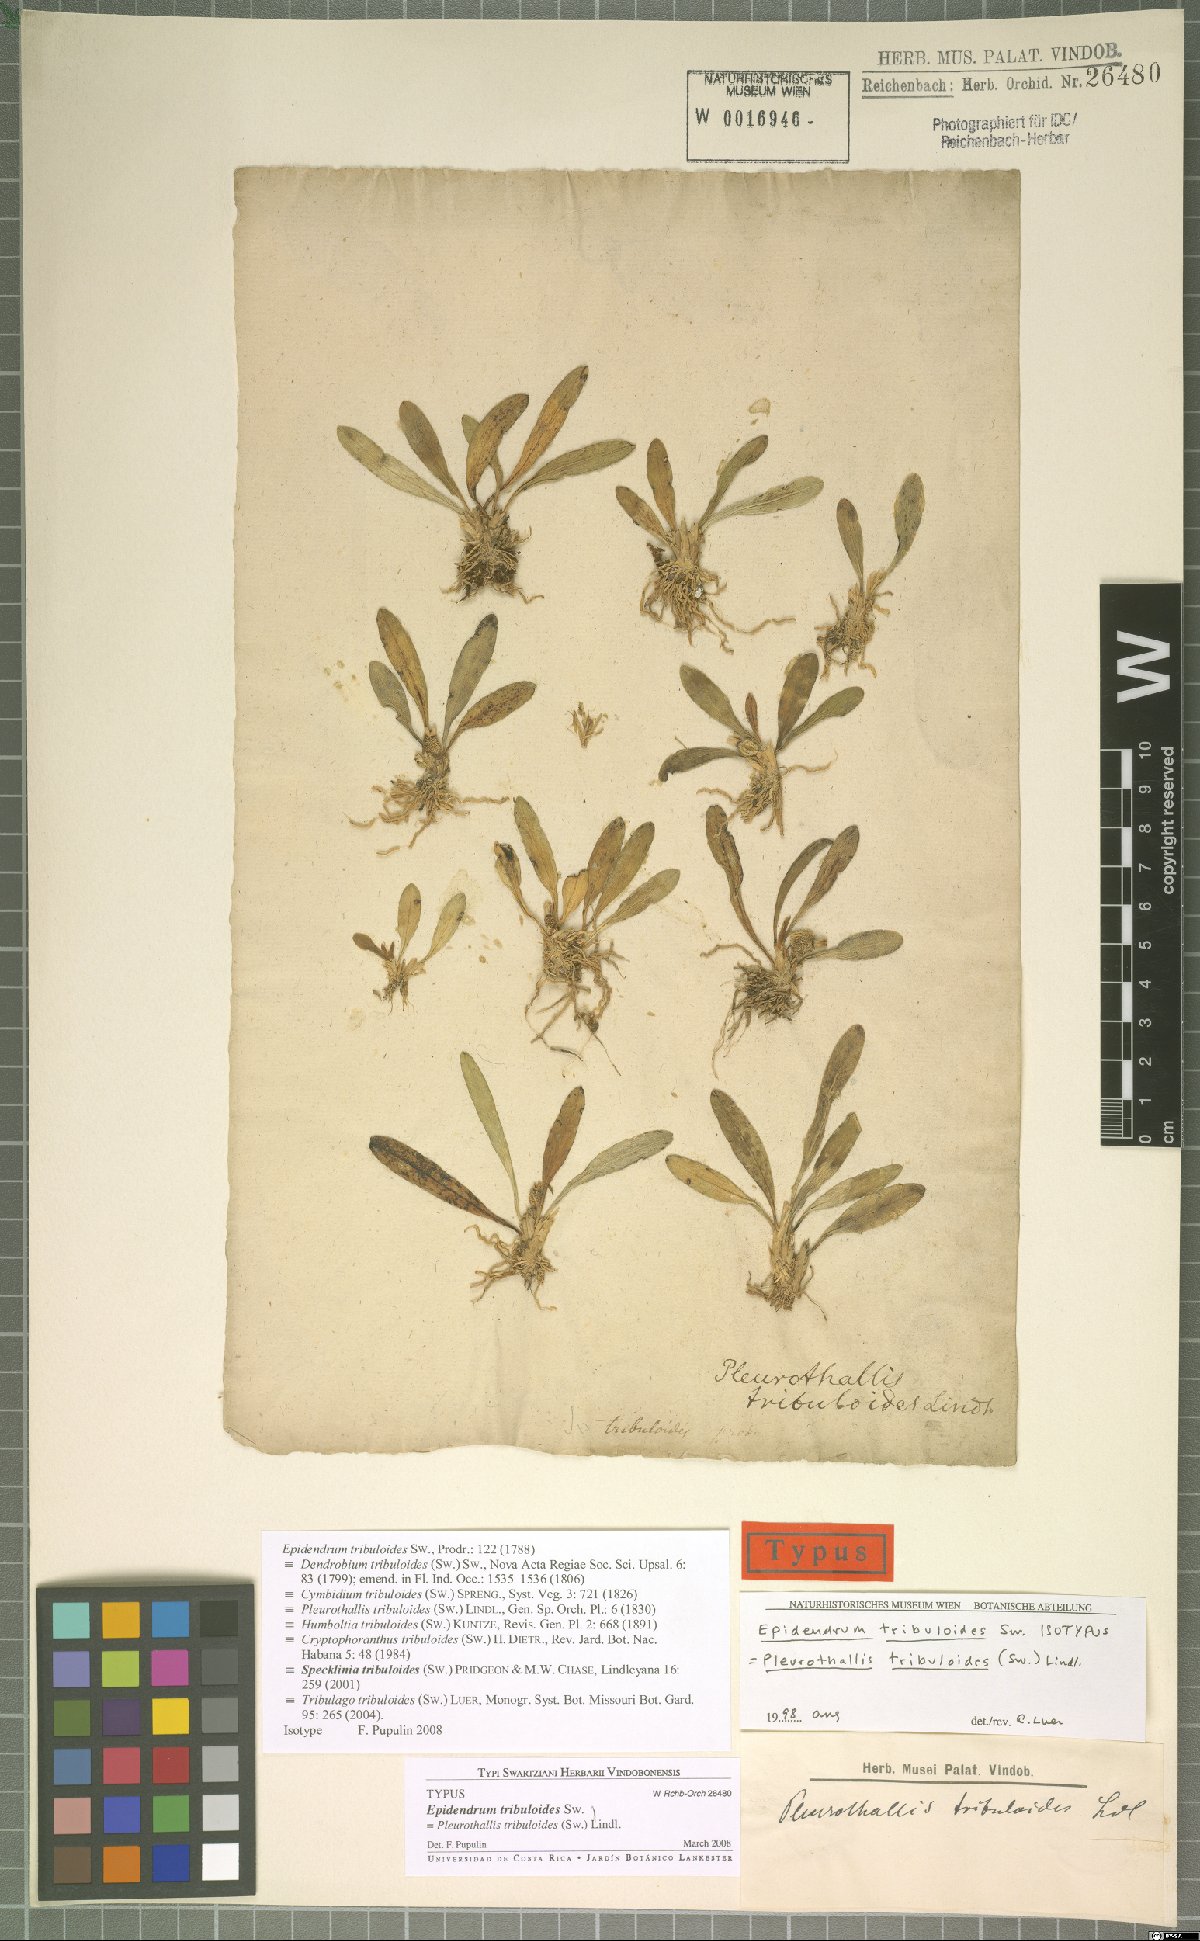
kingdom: Plantae
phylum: Tracheophyta
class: Liliopsida
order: Asparagales
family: Orchidaceae
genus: Specklinia
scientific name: Specklinia tribuloides
